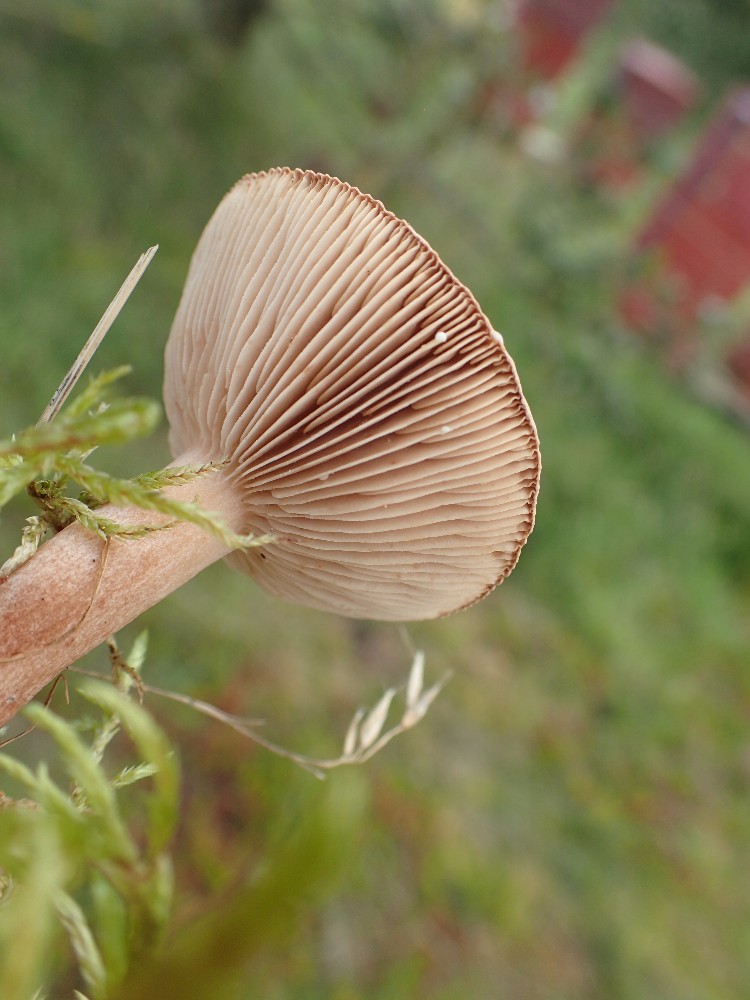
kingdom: Fungi
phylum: Basidiomycota
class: Agaricomycetes
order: Russulales
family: Russulaceae
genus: Lactarius
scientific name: Lactarius quietus
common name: ege-mælkehat
